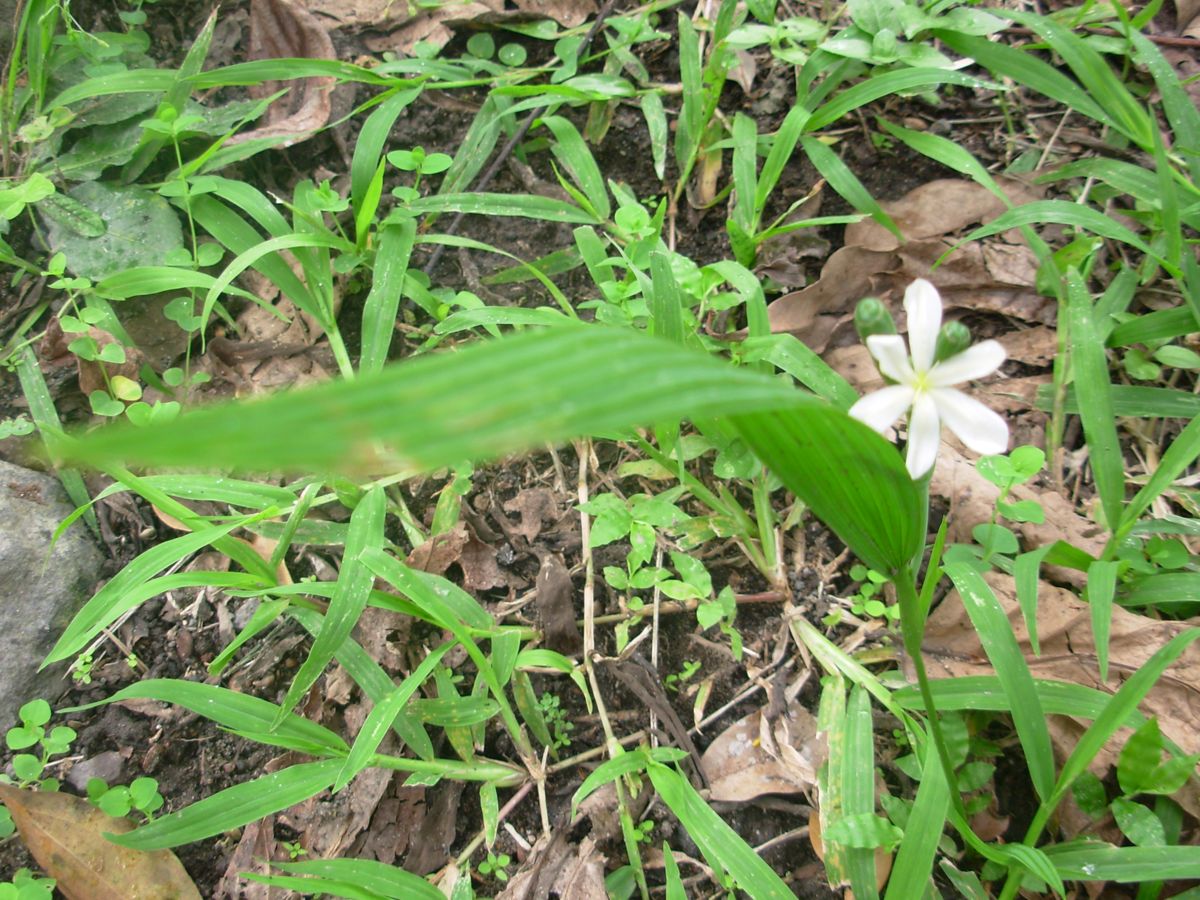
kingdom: Plantae
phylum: Tracheophyta
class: Liliopsida
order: Asparagales
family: Iridaceae
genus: Cipura
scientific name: Cipura campanulata
